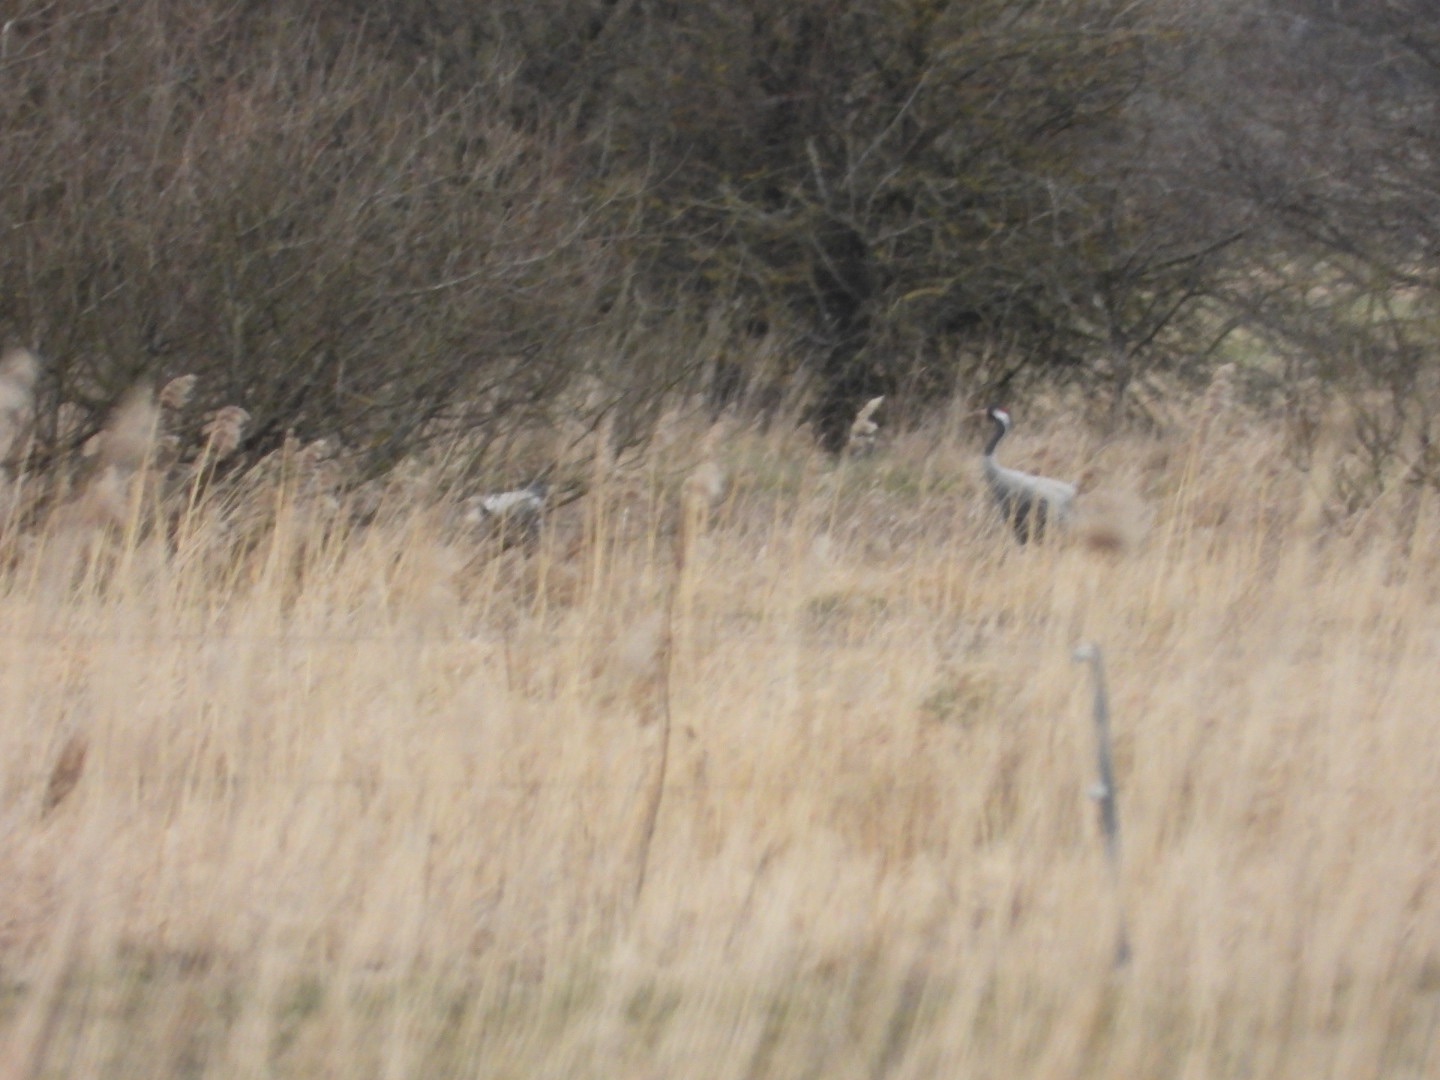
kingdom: Animalia
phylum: Chordata
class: Aves
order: Gruiformes
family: Gruidae
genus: Grus
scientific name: Grus grus
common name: Trane
